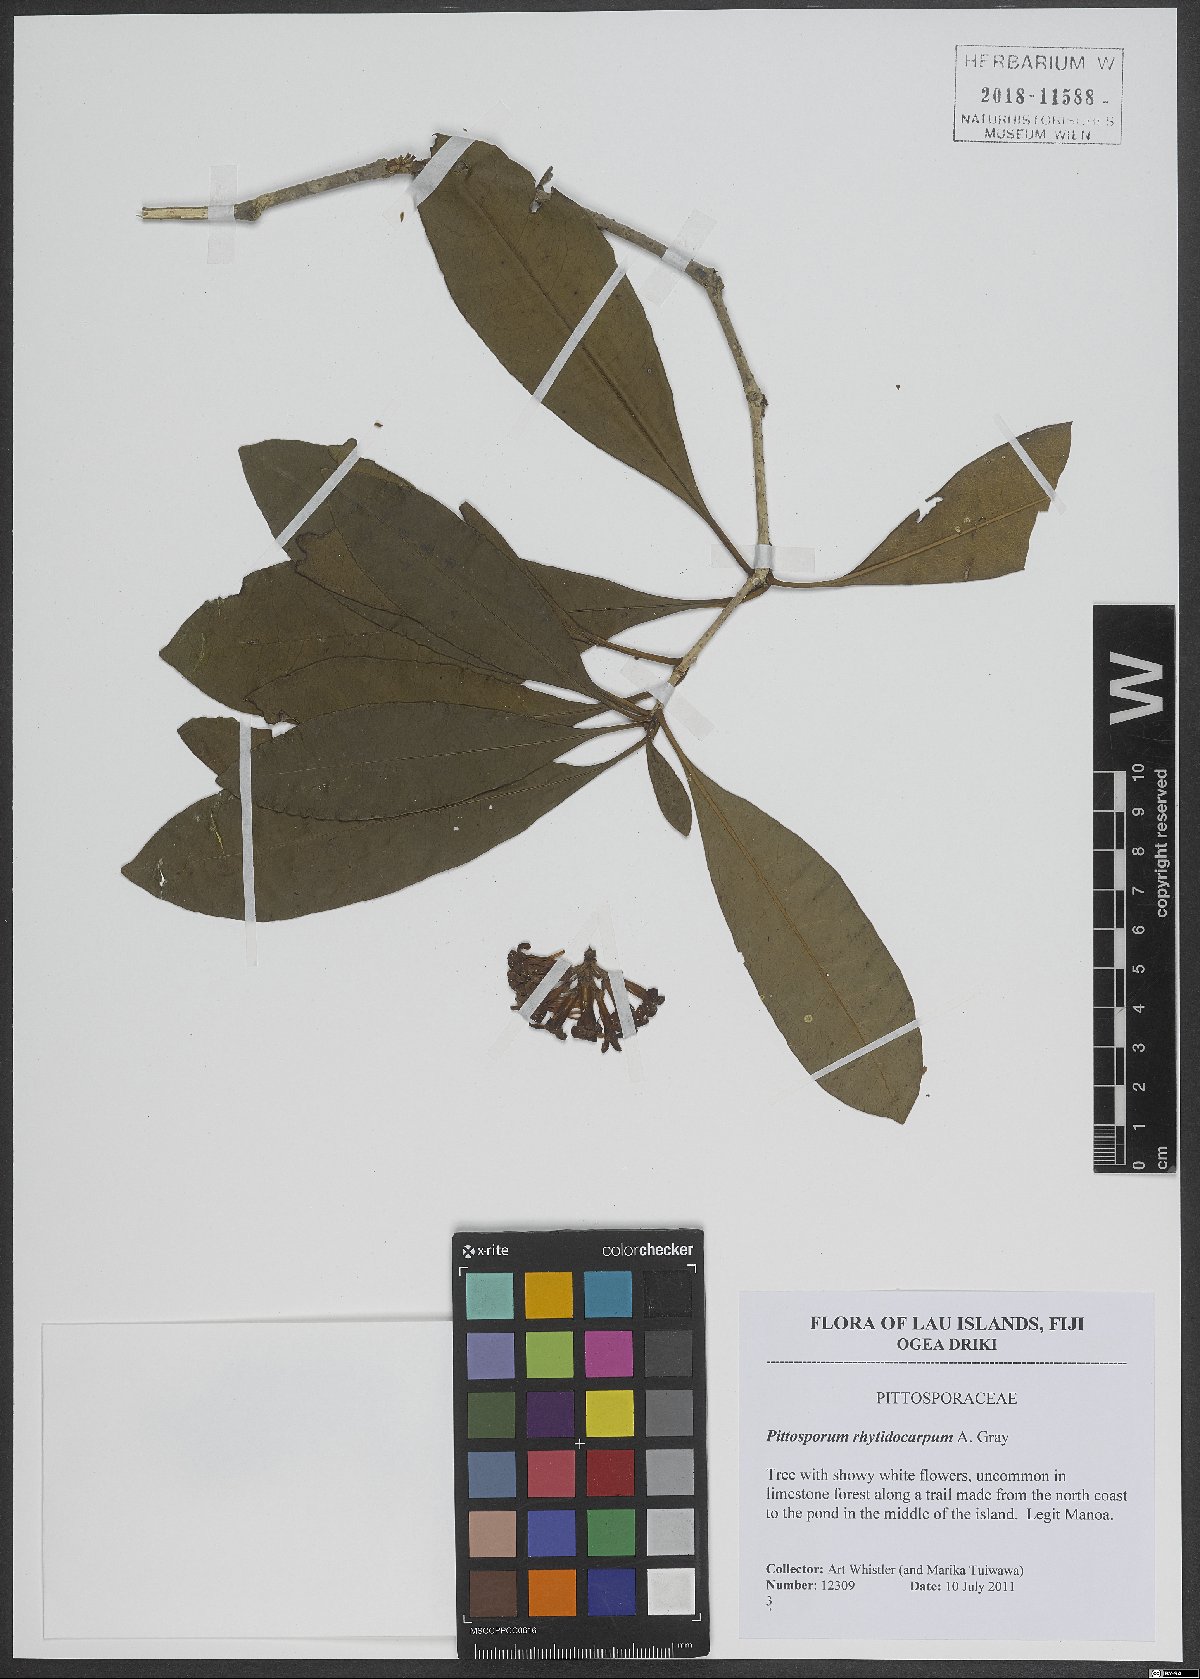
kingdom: Plantae
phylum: Tracheophyta
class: Magnoliopsida
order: Apiales
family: Pittosporaceae
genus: Pittosporum
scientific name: Pittosporum rhytidocarpum
